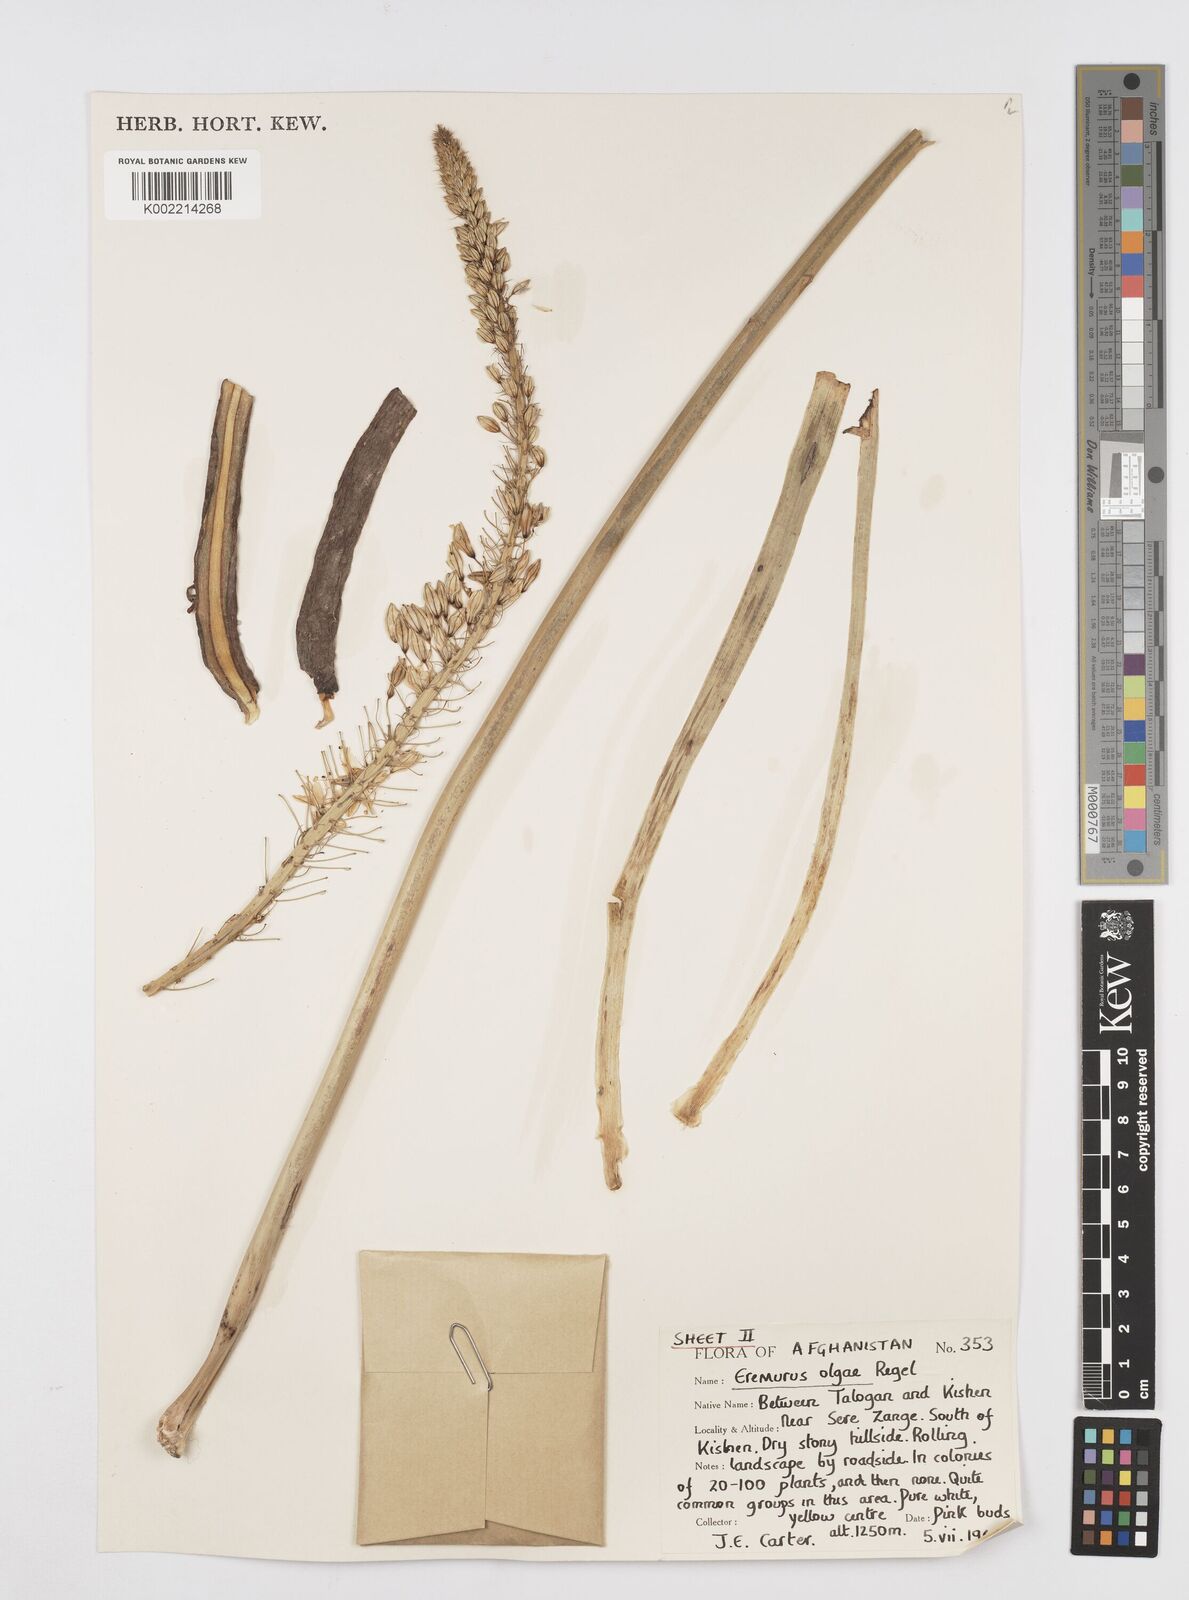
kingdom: Plantae
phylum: Tracheophyta
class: Liliopsida
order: Asparagales
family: Asphodelaceae
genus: Eremurus
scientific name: Eremurus olgae
